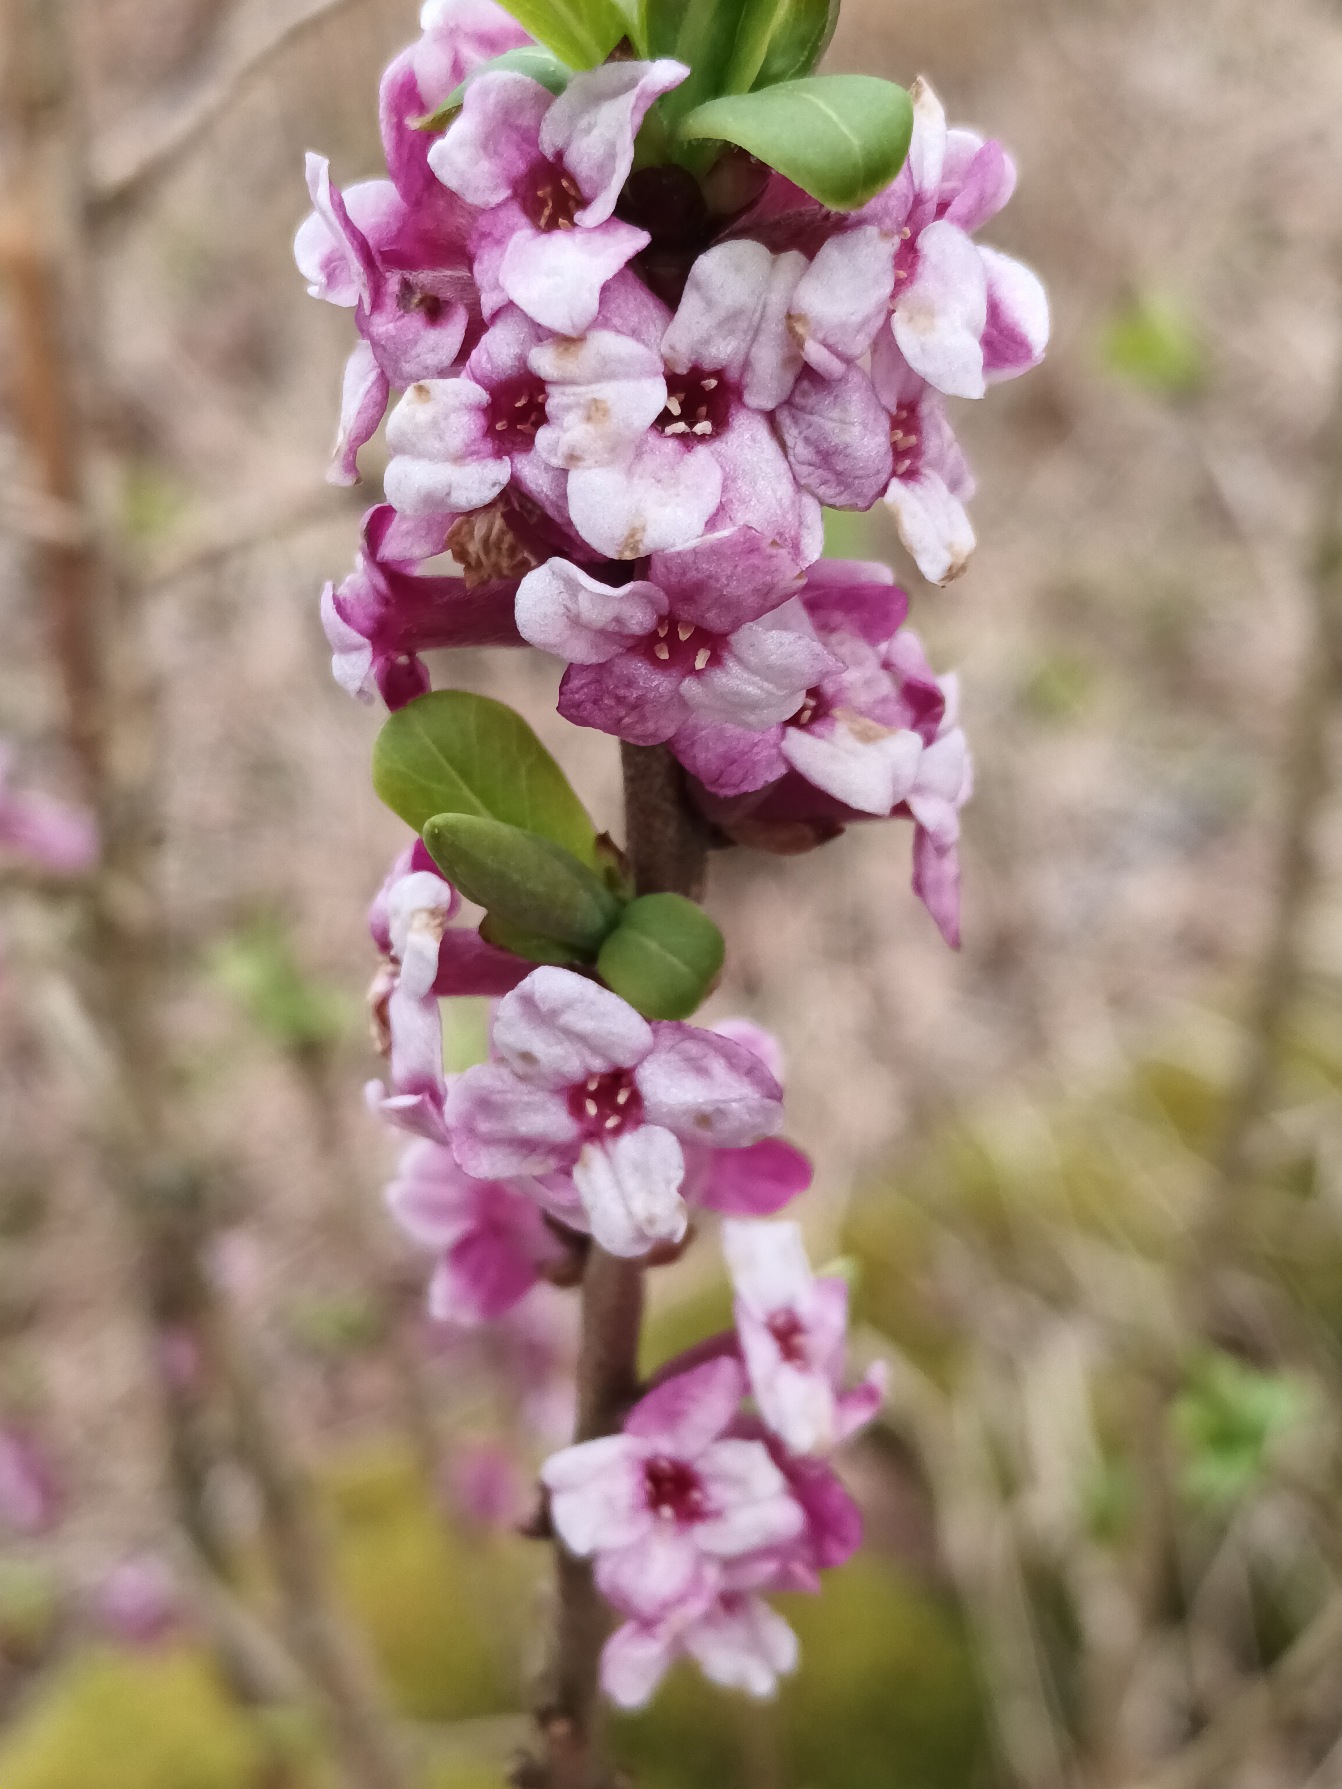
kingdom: Plantae
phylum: Tracheophyta
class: Magnoliopsida
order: Malvales
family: Thymelaeaceae
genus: Daphne
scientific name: Daphne mezereum
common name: Pebertræ
